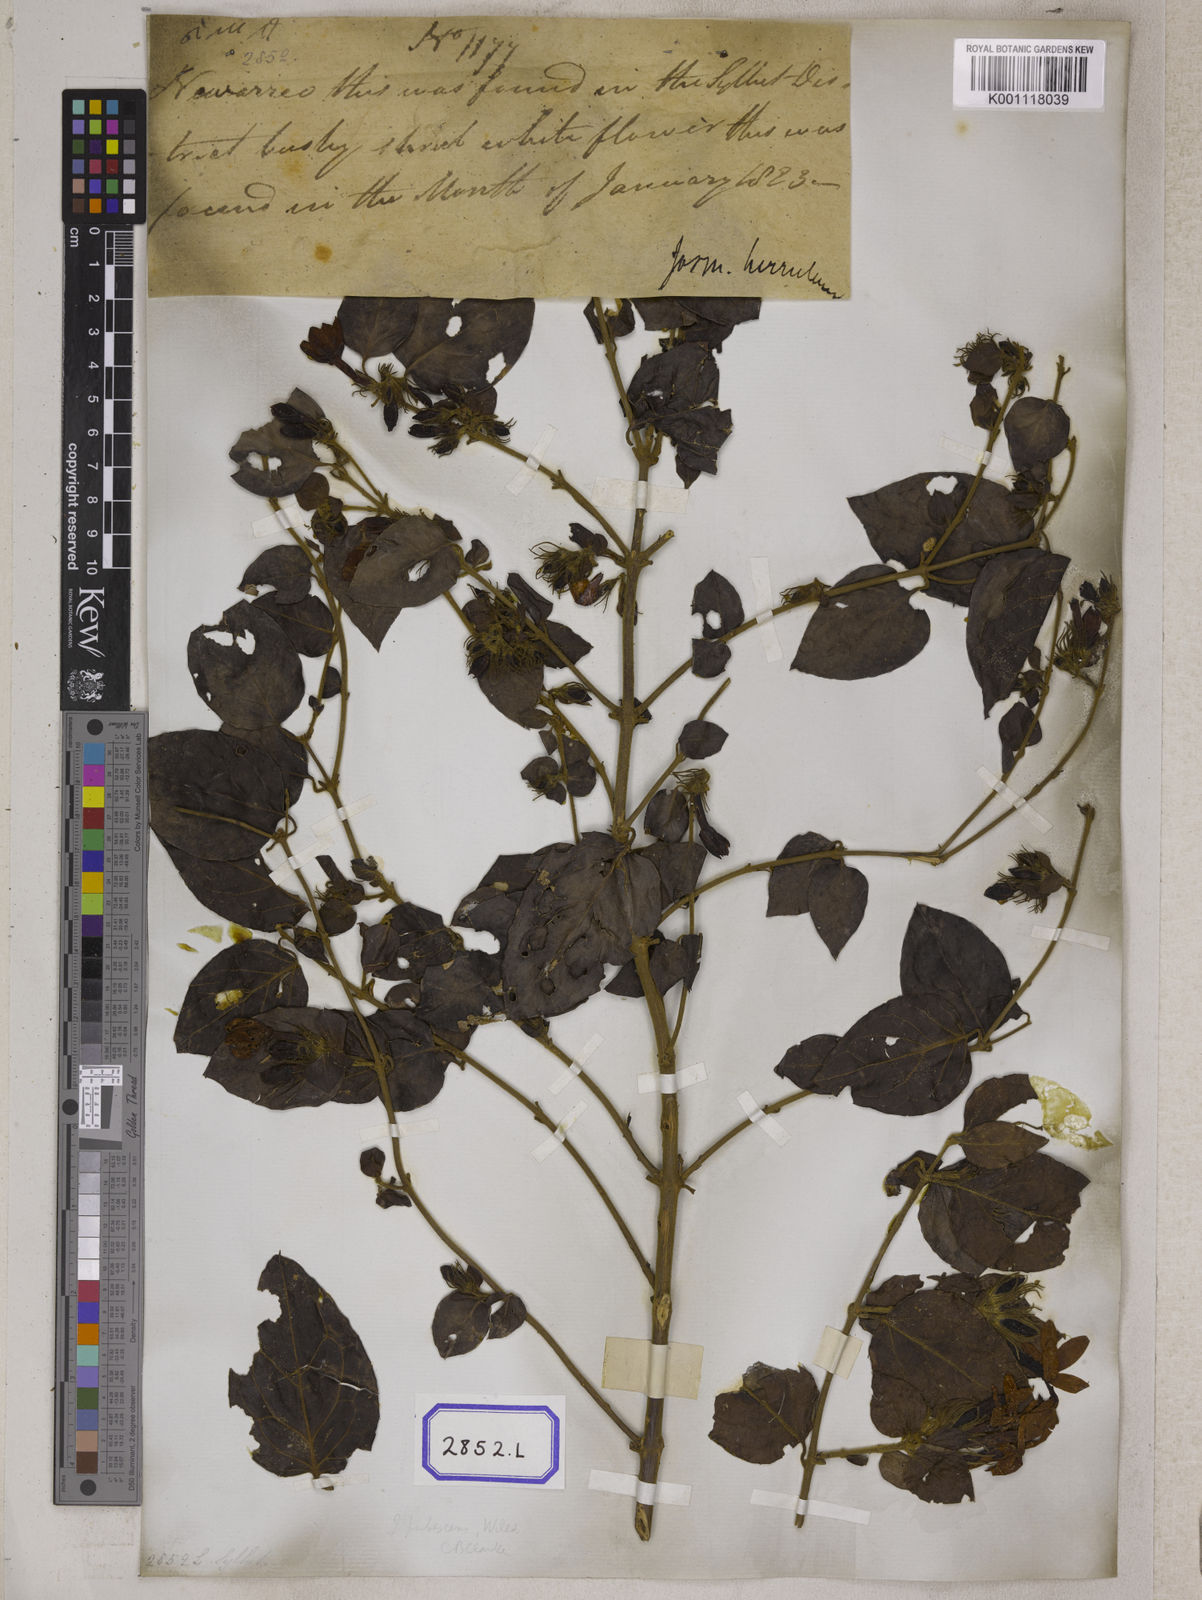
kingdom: Plantae
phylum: Tracheophyta
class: Magnoliopsida
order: Gentianales
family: Rubiaceae
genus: Guettarda
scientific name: Guettarda speciosa
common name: Sea randa
